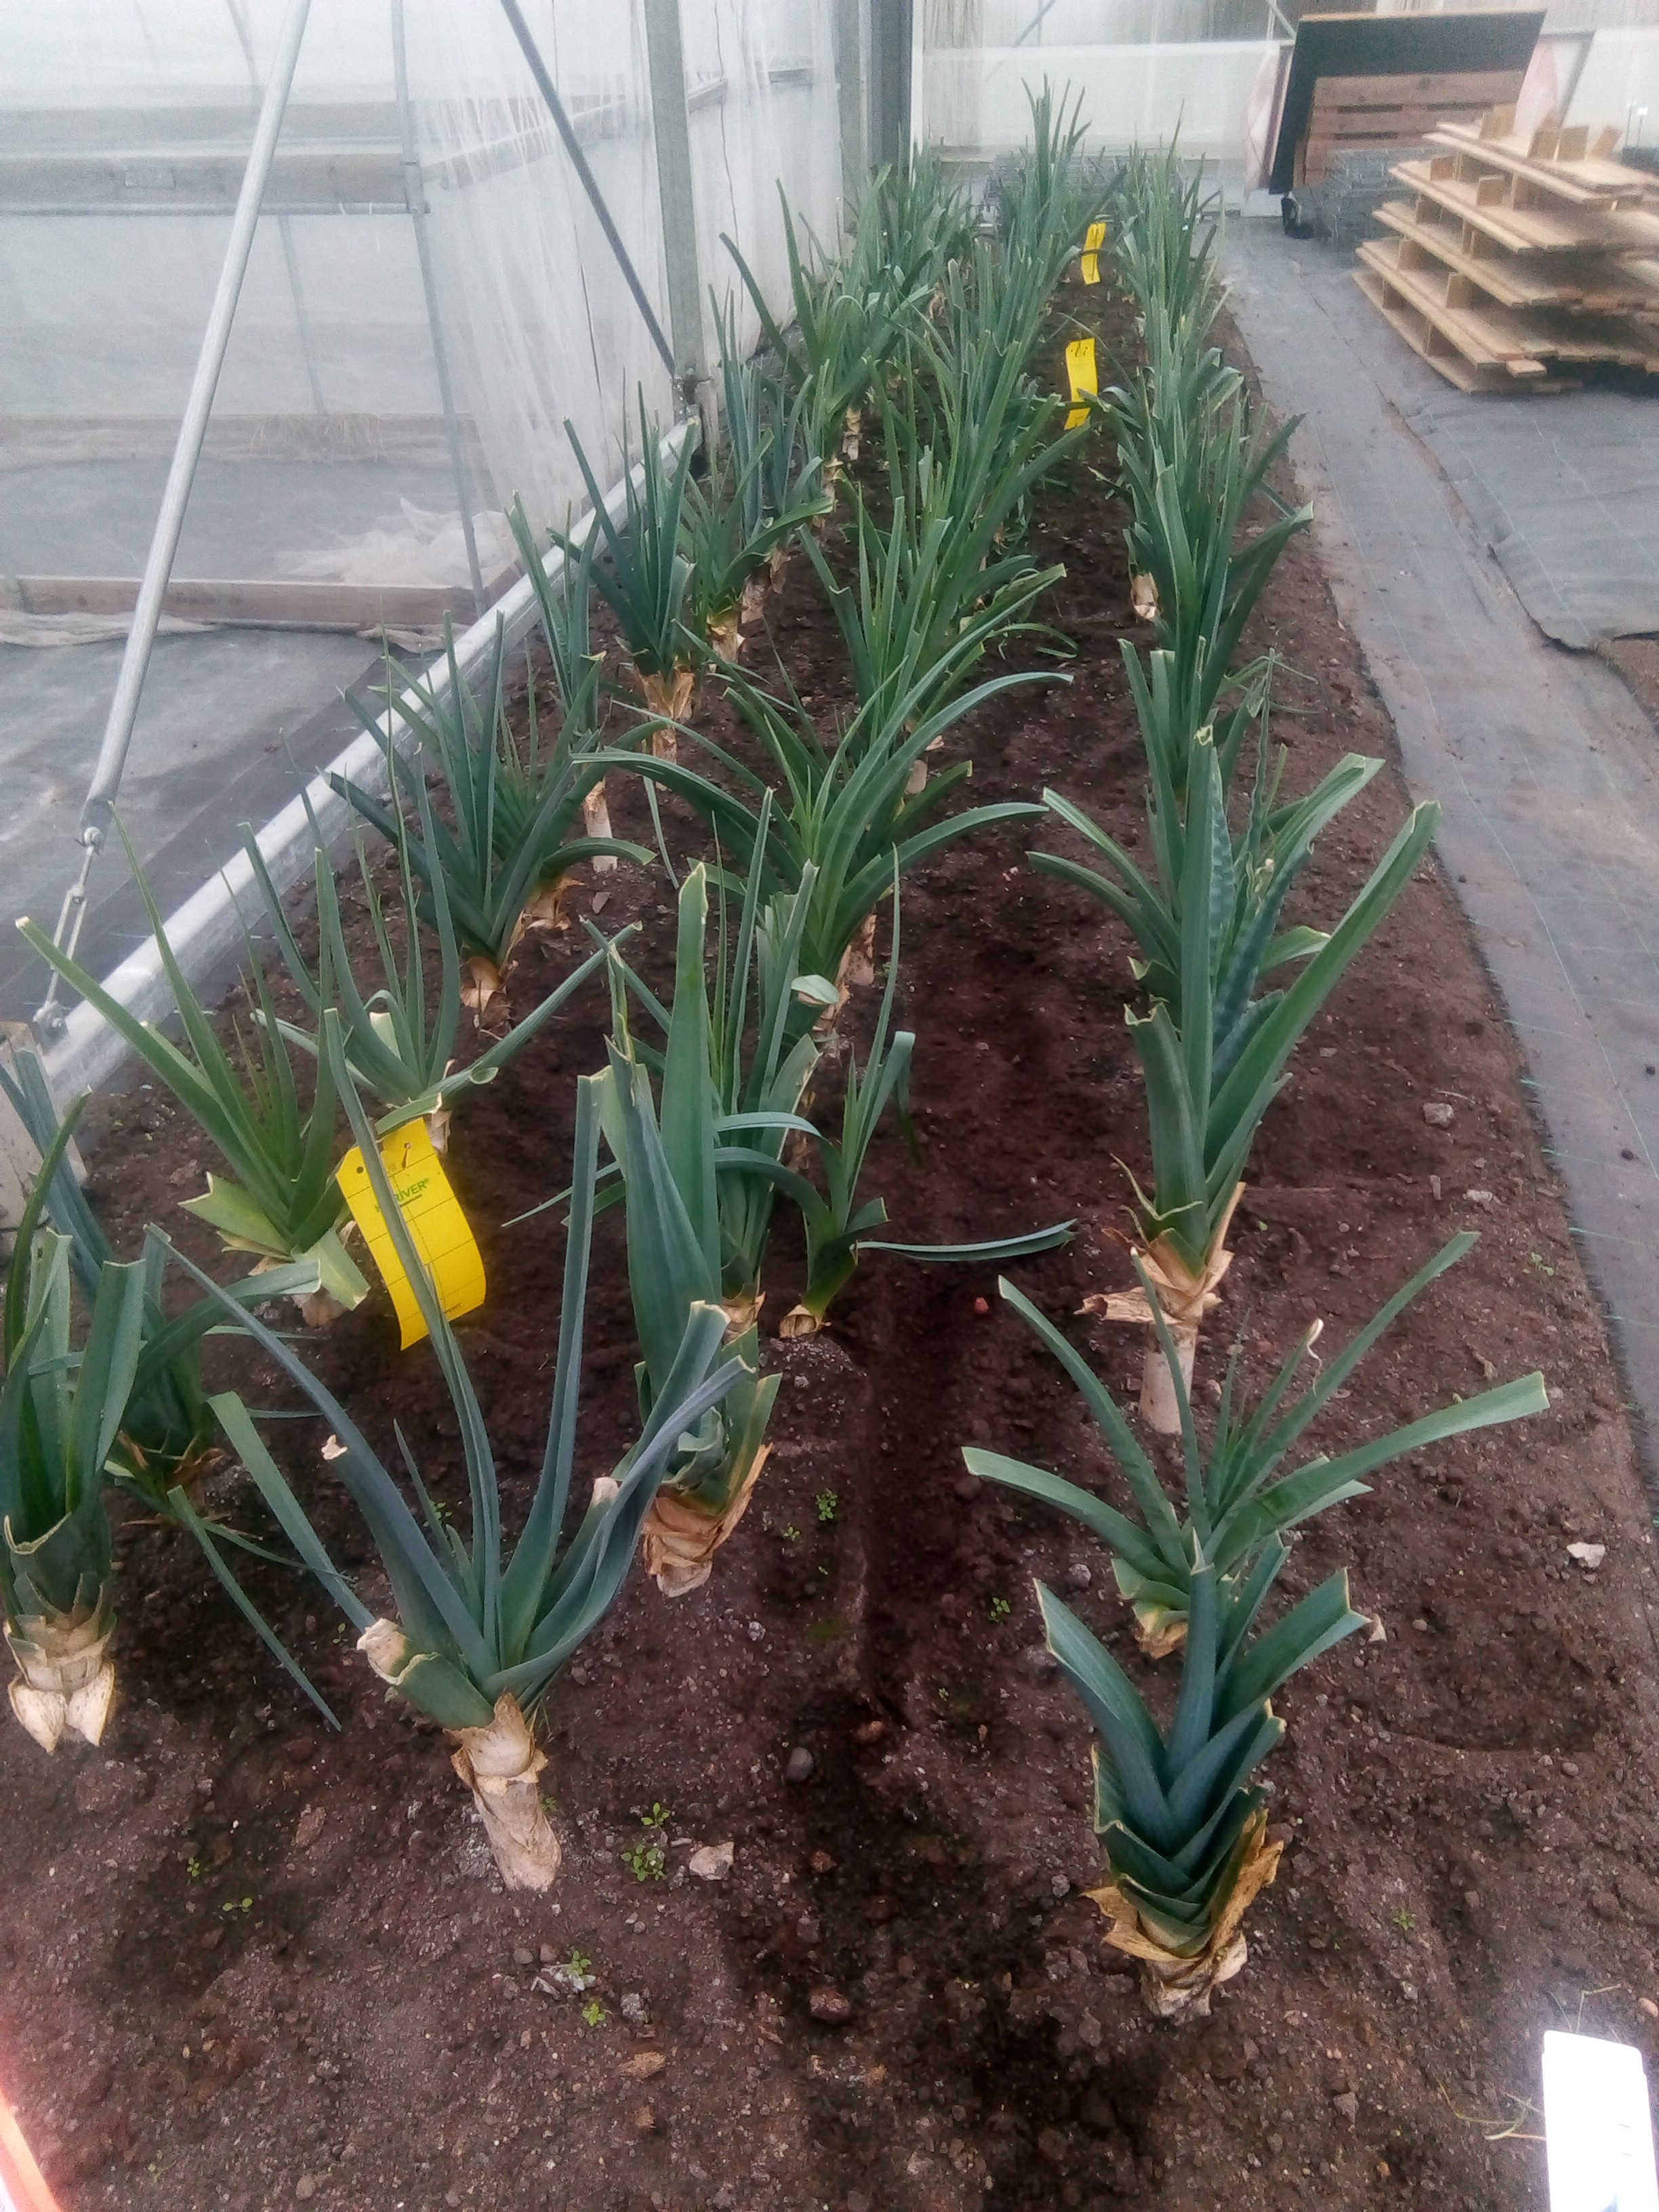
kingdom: Plantae
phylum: Tracheophyta
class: Liliopsida
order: Asparagales
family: Amaryllidaceae
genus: Allium
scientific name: Allium ampeloprasum
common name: Wild leek
